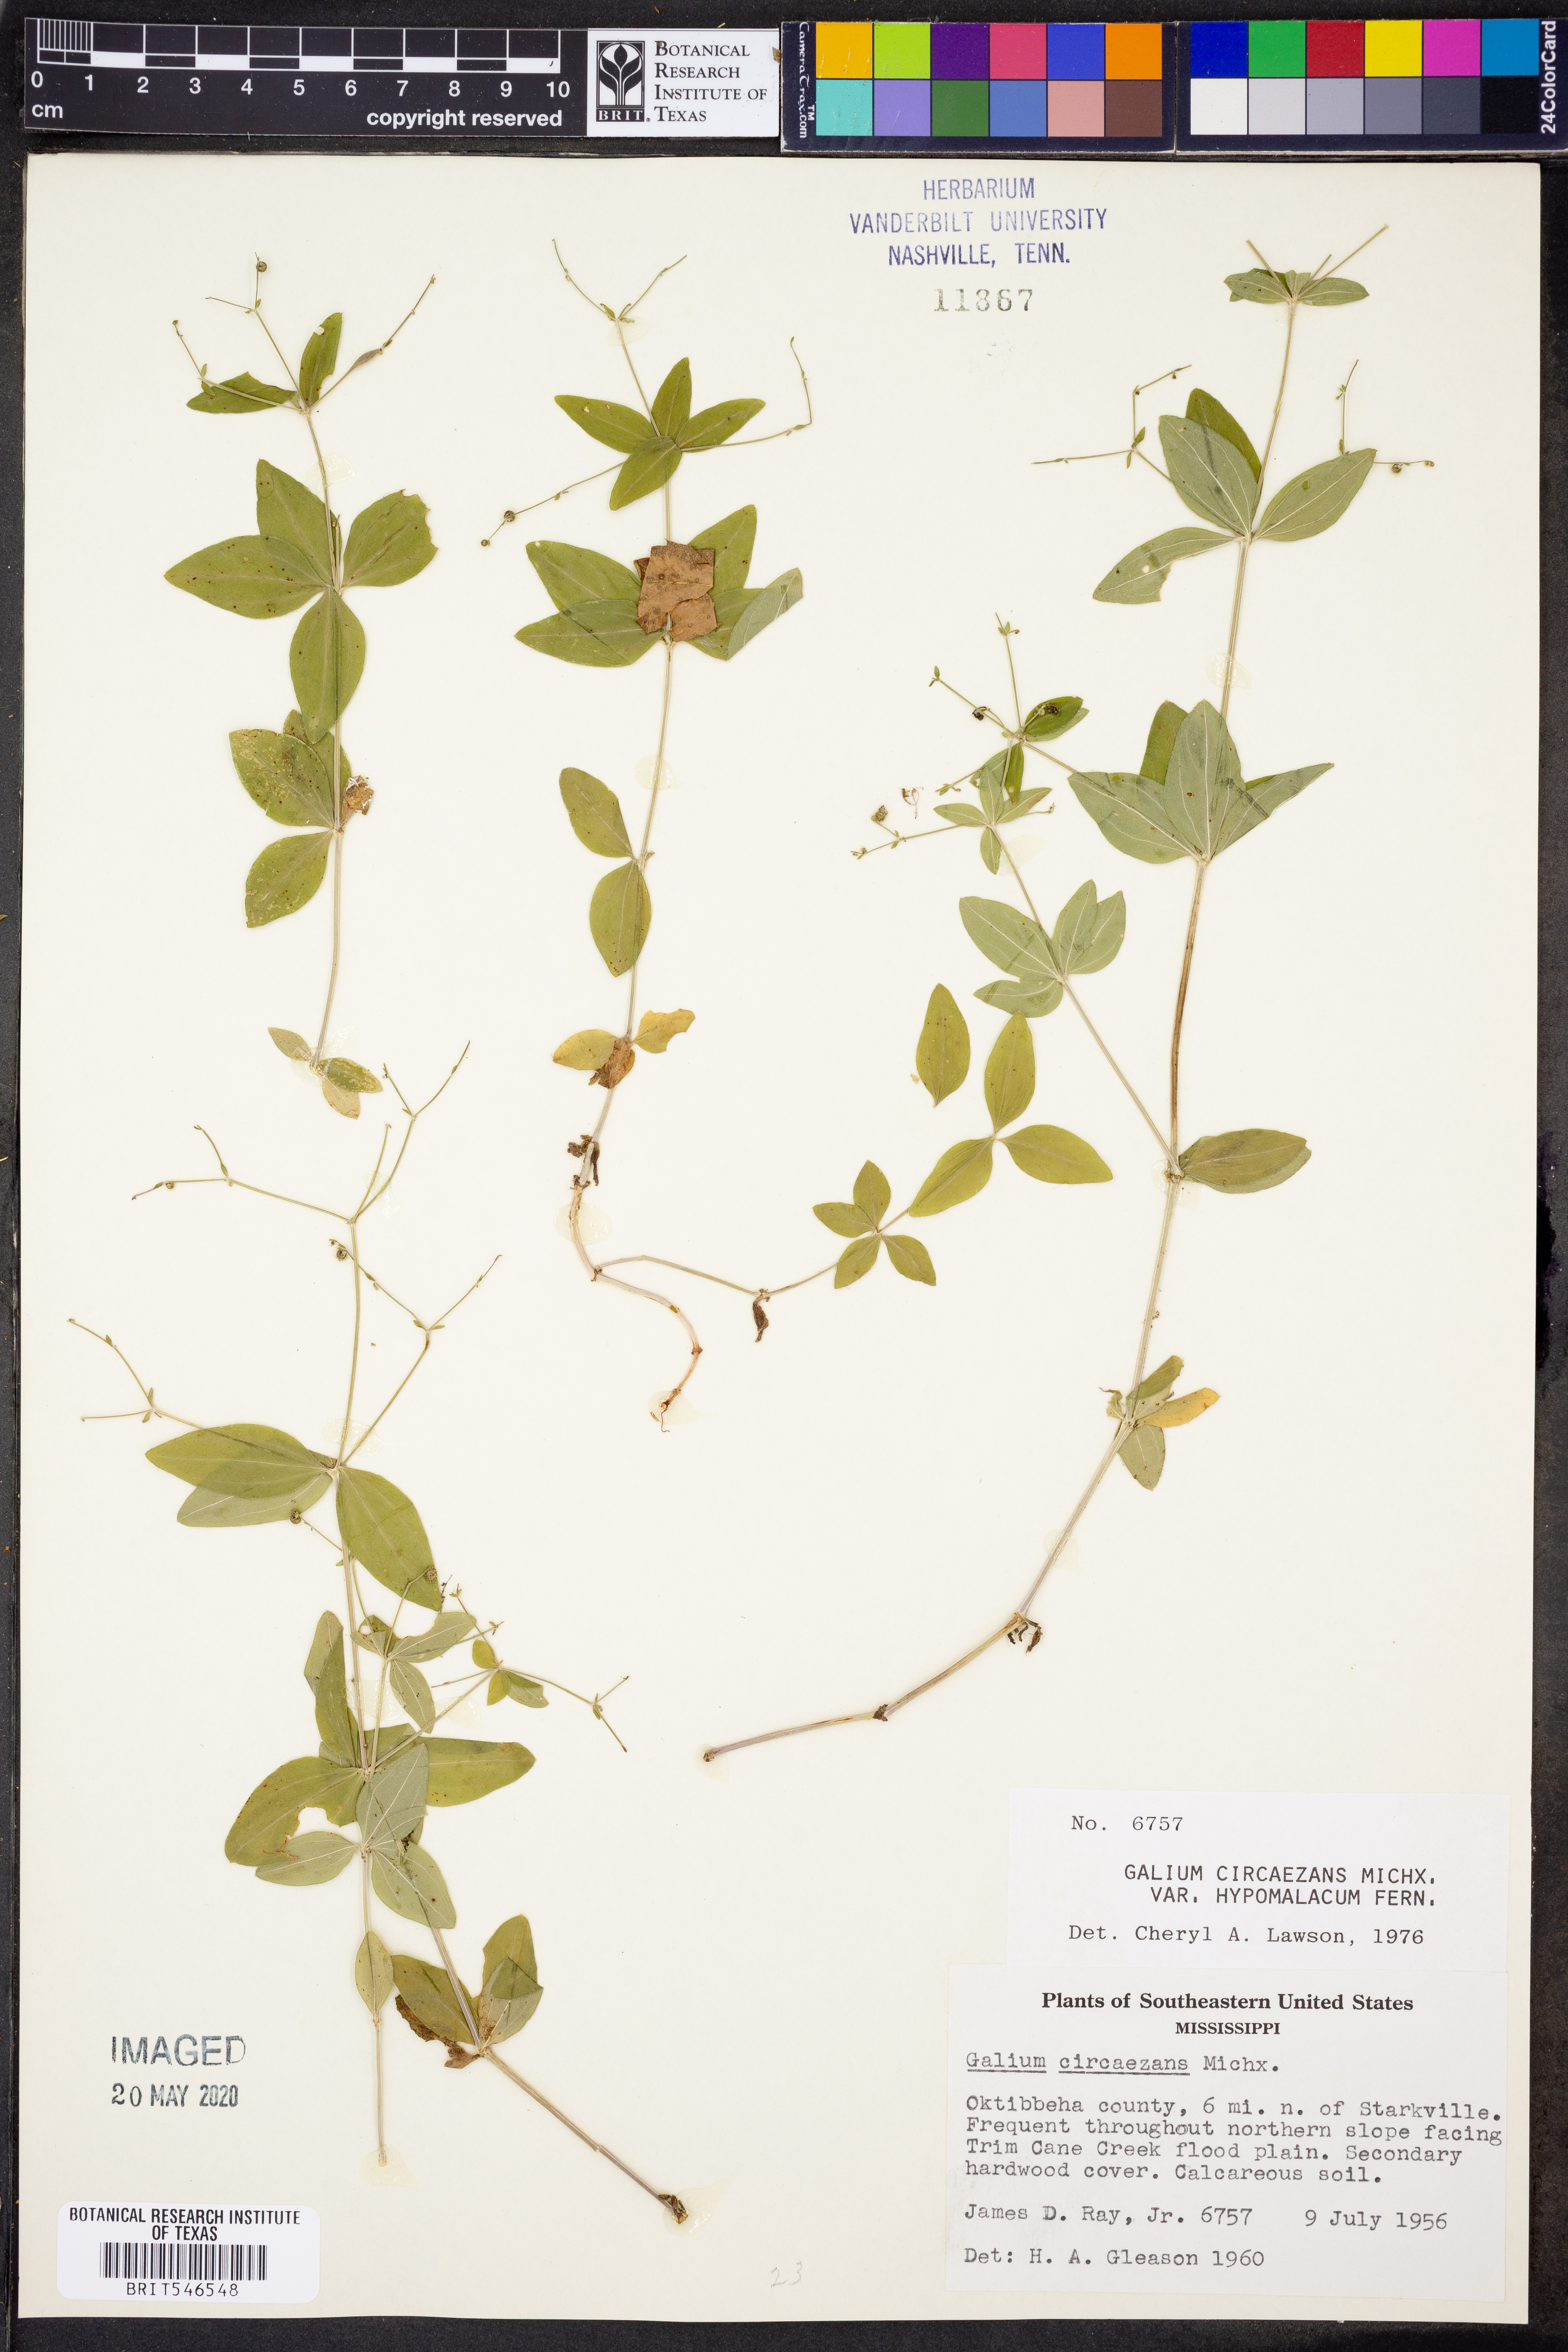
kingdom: Plantae
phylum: Tracheophyta
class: Magnoliopsida
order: Gentianales
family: Rubiaceae
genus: Galium
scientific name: Galium circaezans
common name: Forest bedstraw
